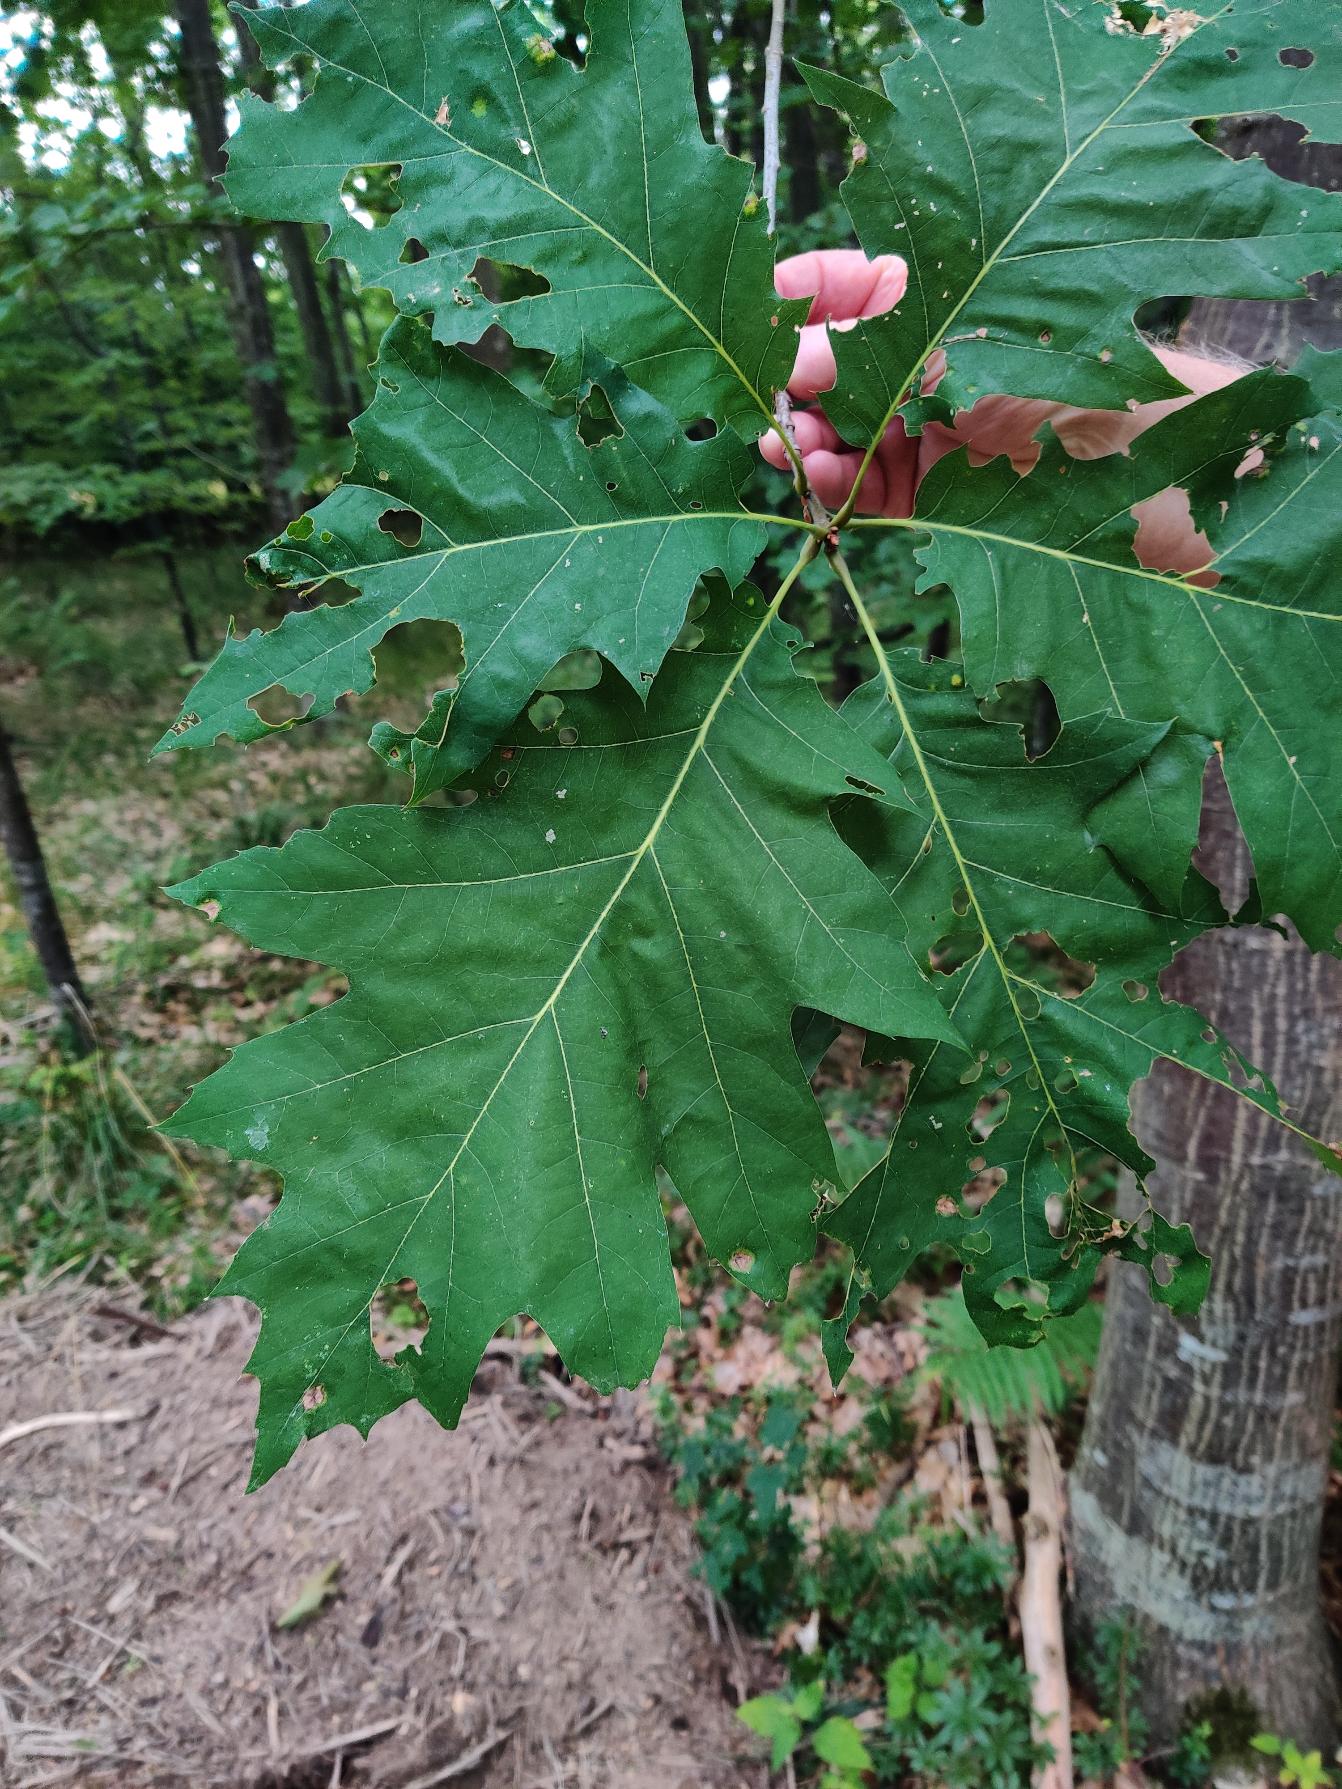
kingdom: Plantae
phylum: Tracheophyta
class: Magnoliopsida
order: Fagales
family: Fagaceae
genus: Quercus
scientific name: Quercus rubra
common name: Rød-eg
